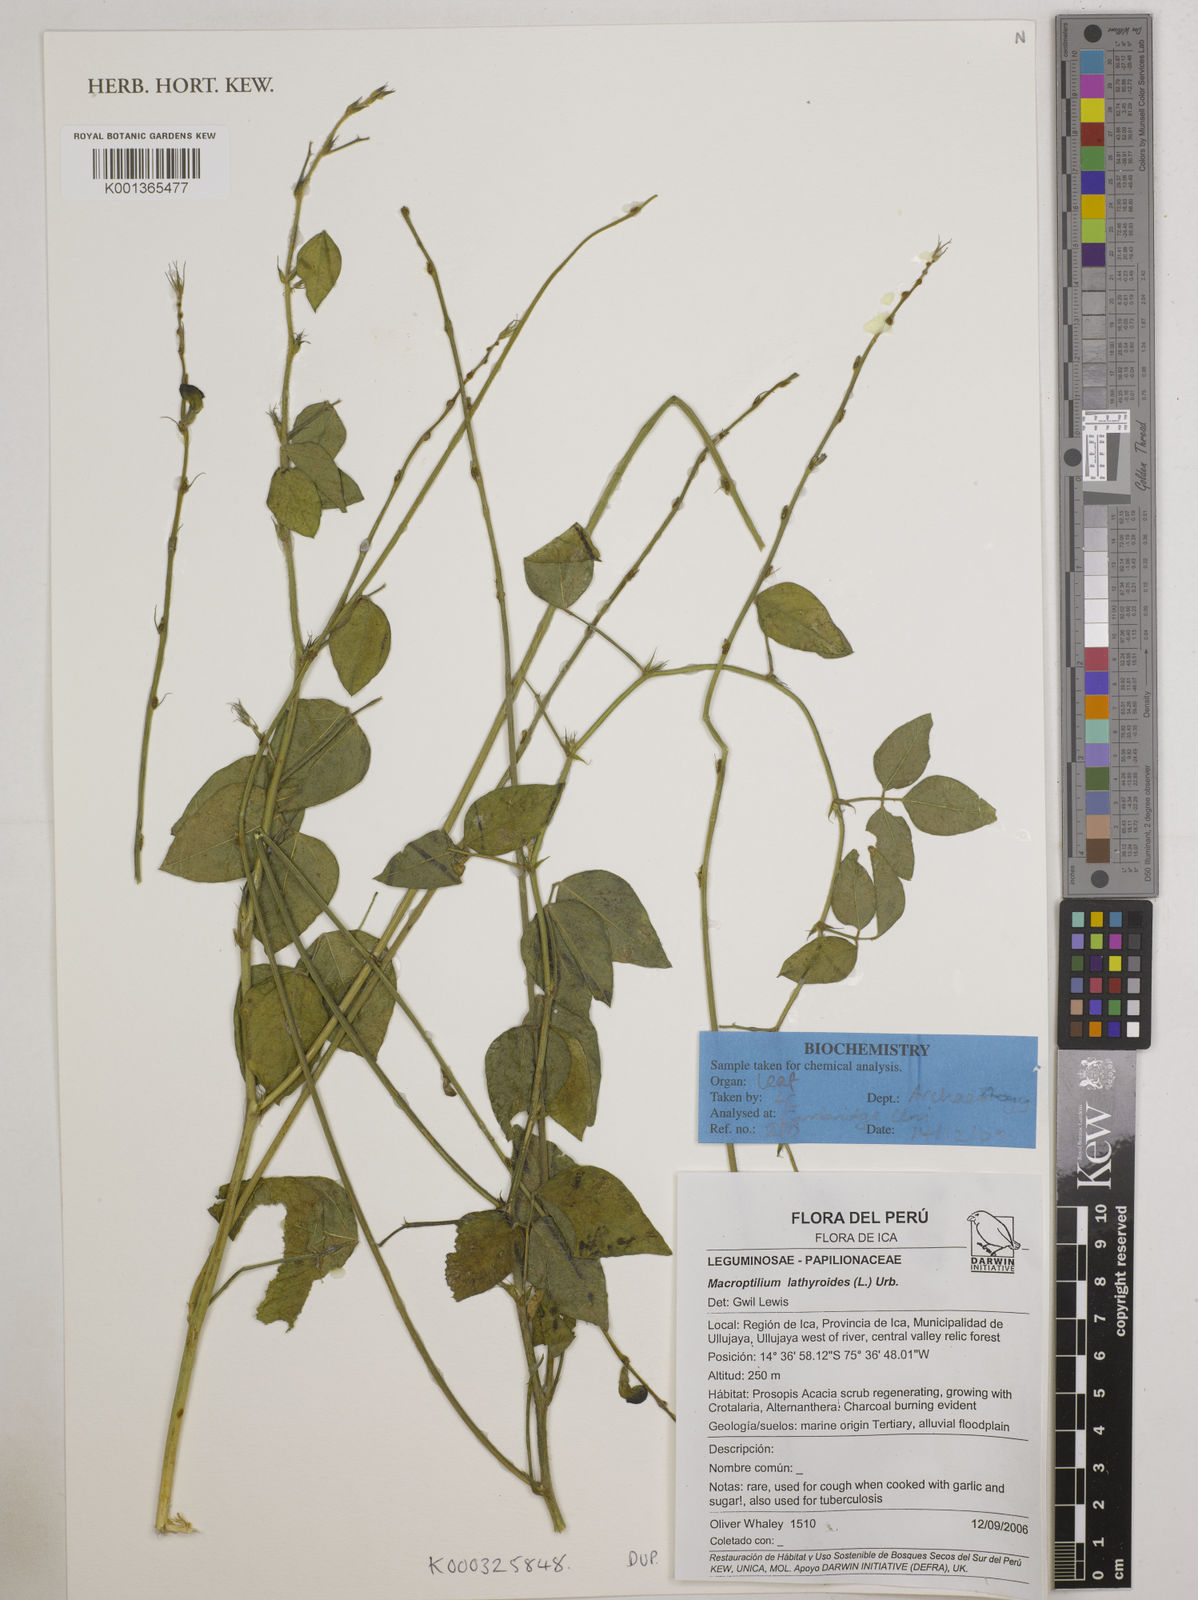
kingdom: Plantae
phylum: Tracheophyta
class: Magnoliopsida
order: Fabales
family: Fabaceae
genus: Macroptilium
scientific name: Macroptilium lathyroides
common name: Wild bushbean
